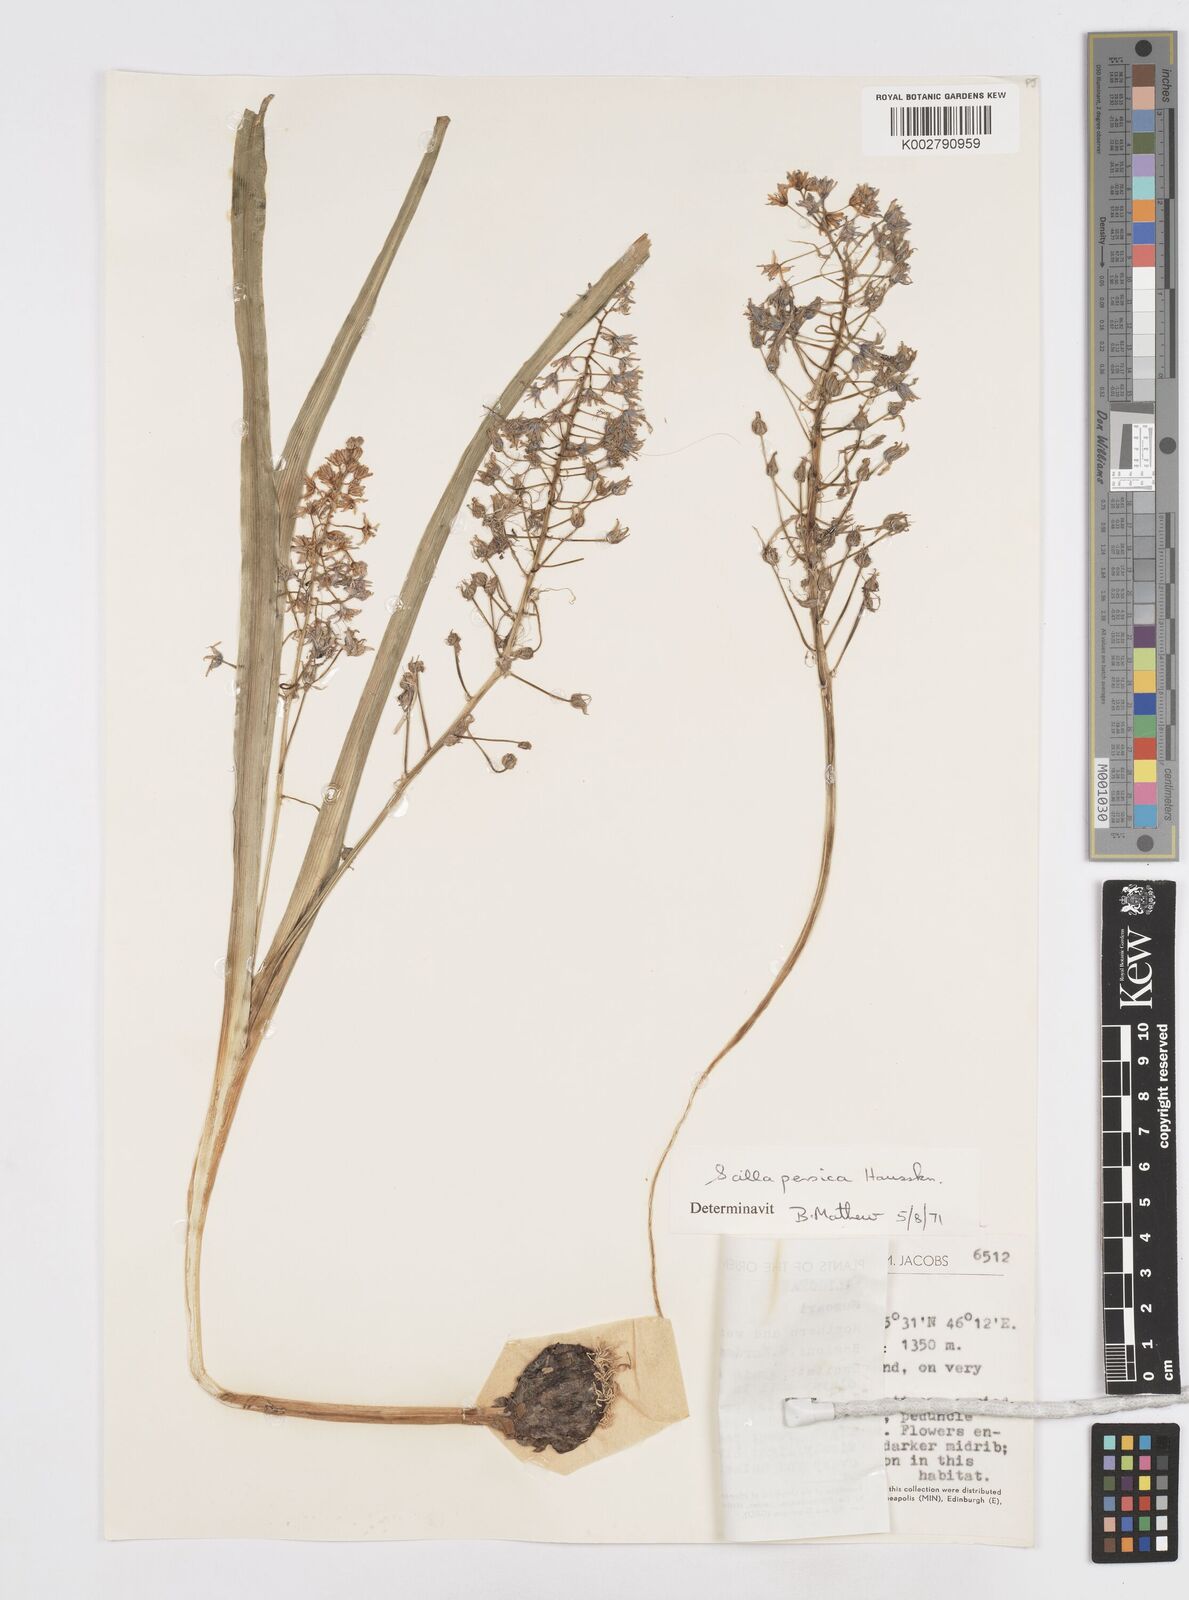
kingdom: Plantae
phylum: Tracheophyta
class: Liliopsida
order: Asparagales
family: Asparagaceae
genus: Zagrosia
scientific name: Zagrosia persica
